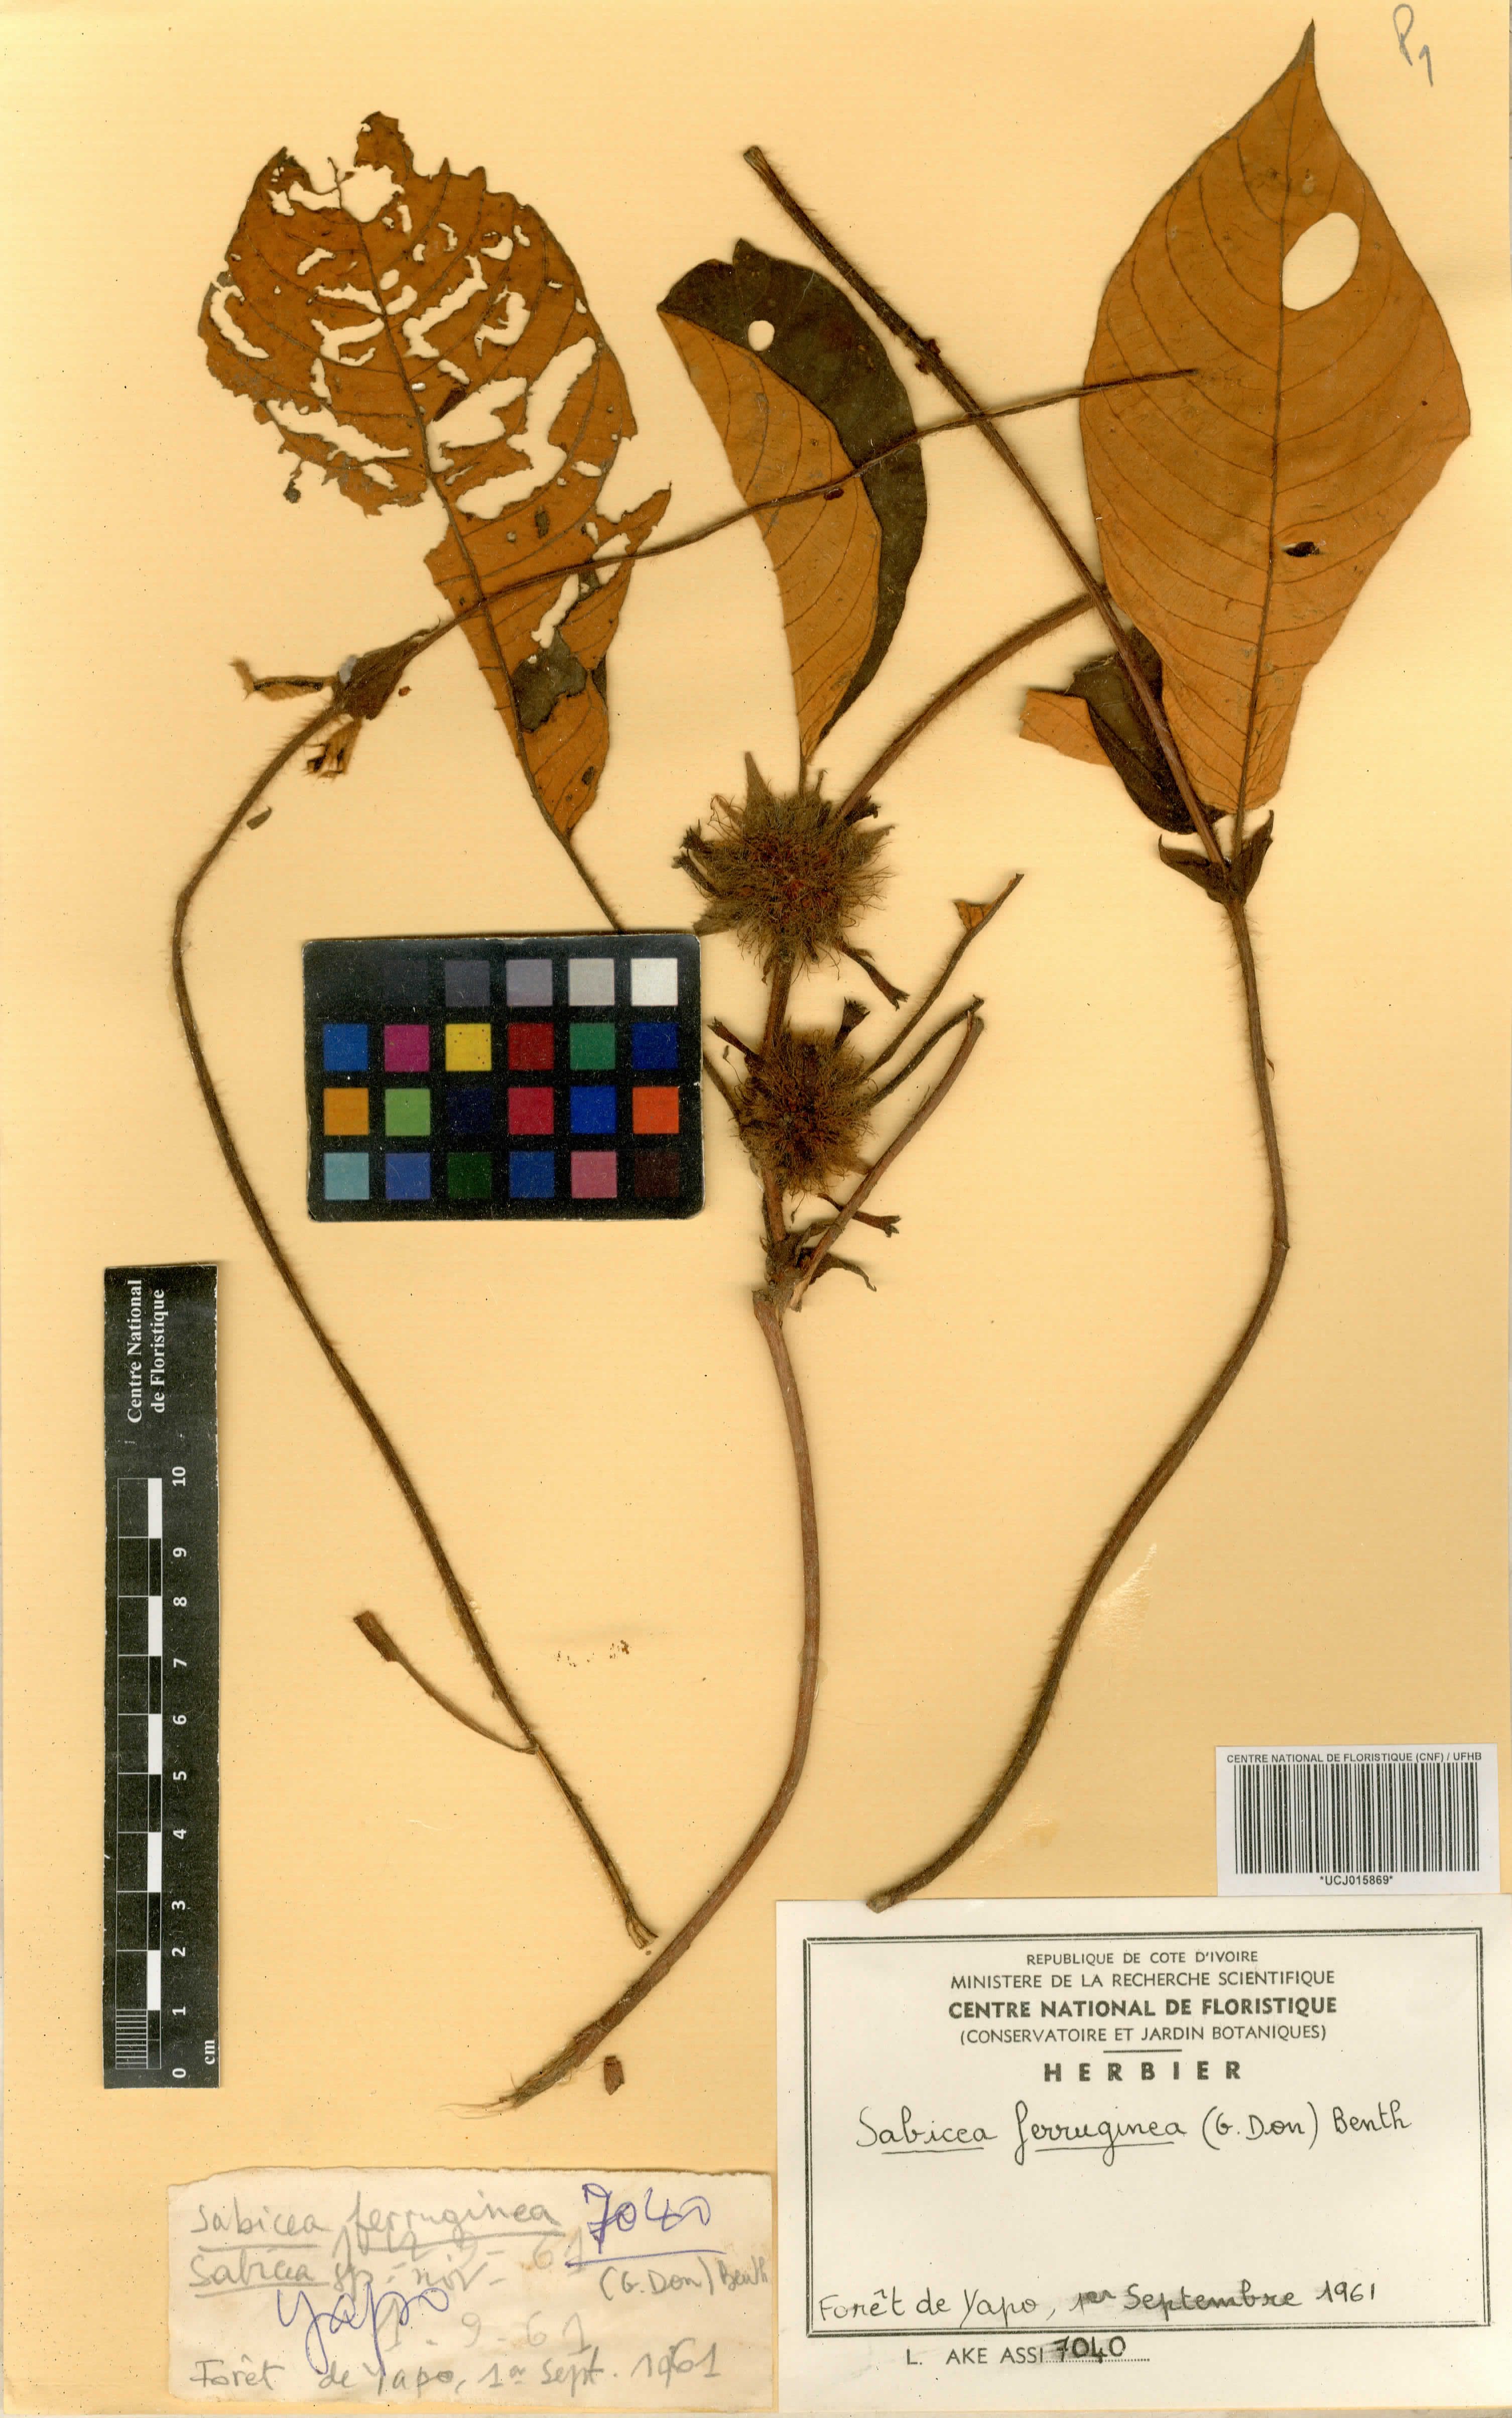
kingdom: Plantae
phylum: Tracheophyta
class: Magnoliopsida
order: Gentianales
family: Rubiaceae
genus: Sabicea
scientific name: Sabicea ferruginea
